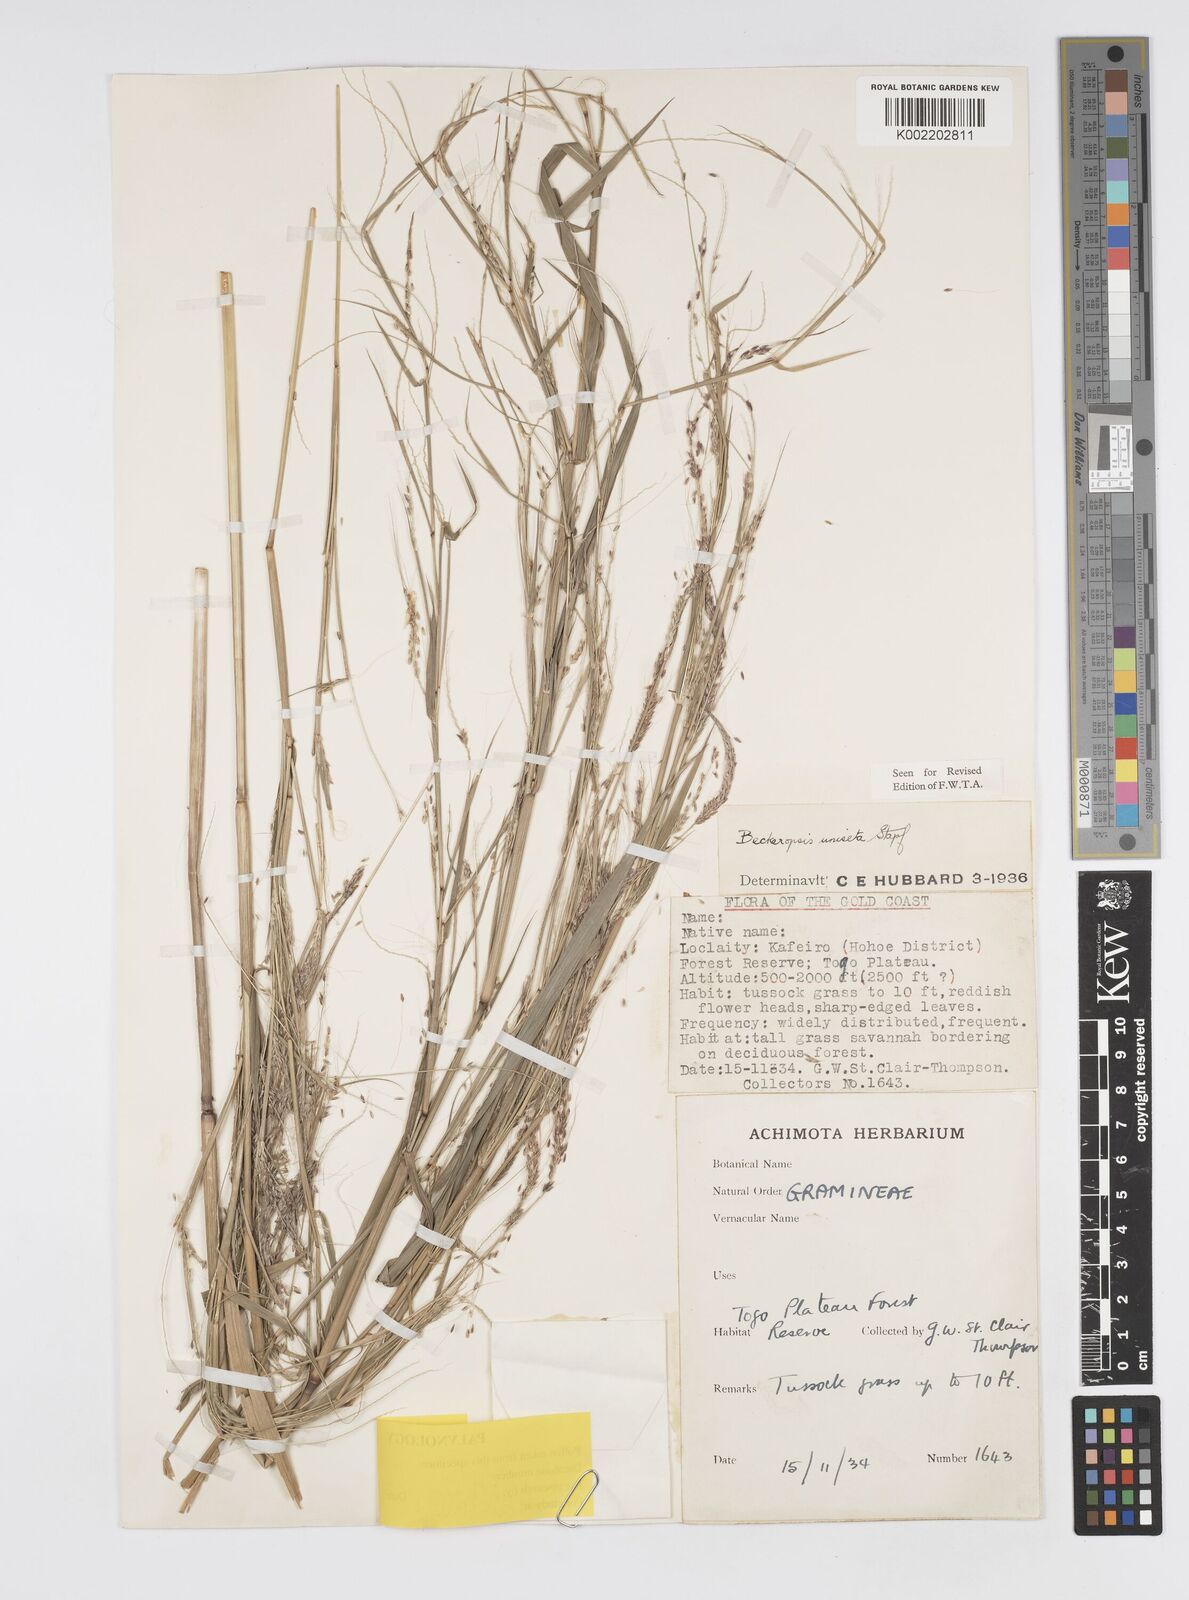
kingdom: Plantae
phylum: Tracheophyta
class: Liliopsida
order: Poales
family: Poaceae
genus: Cenchrus
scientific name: Cenchrus unisetus
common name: Natal grass
